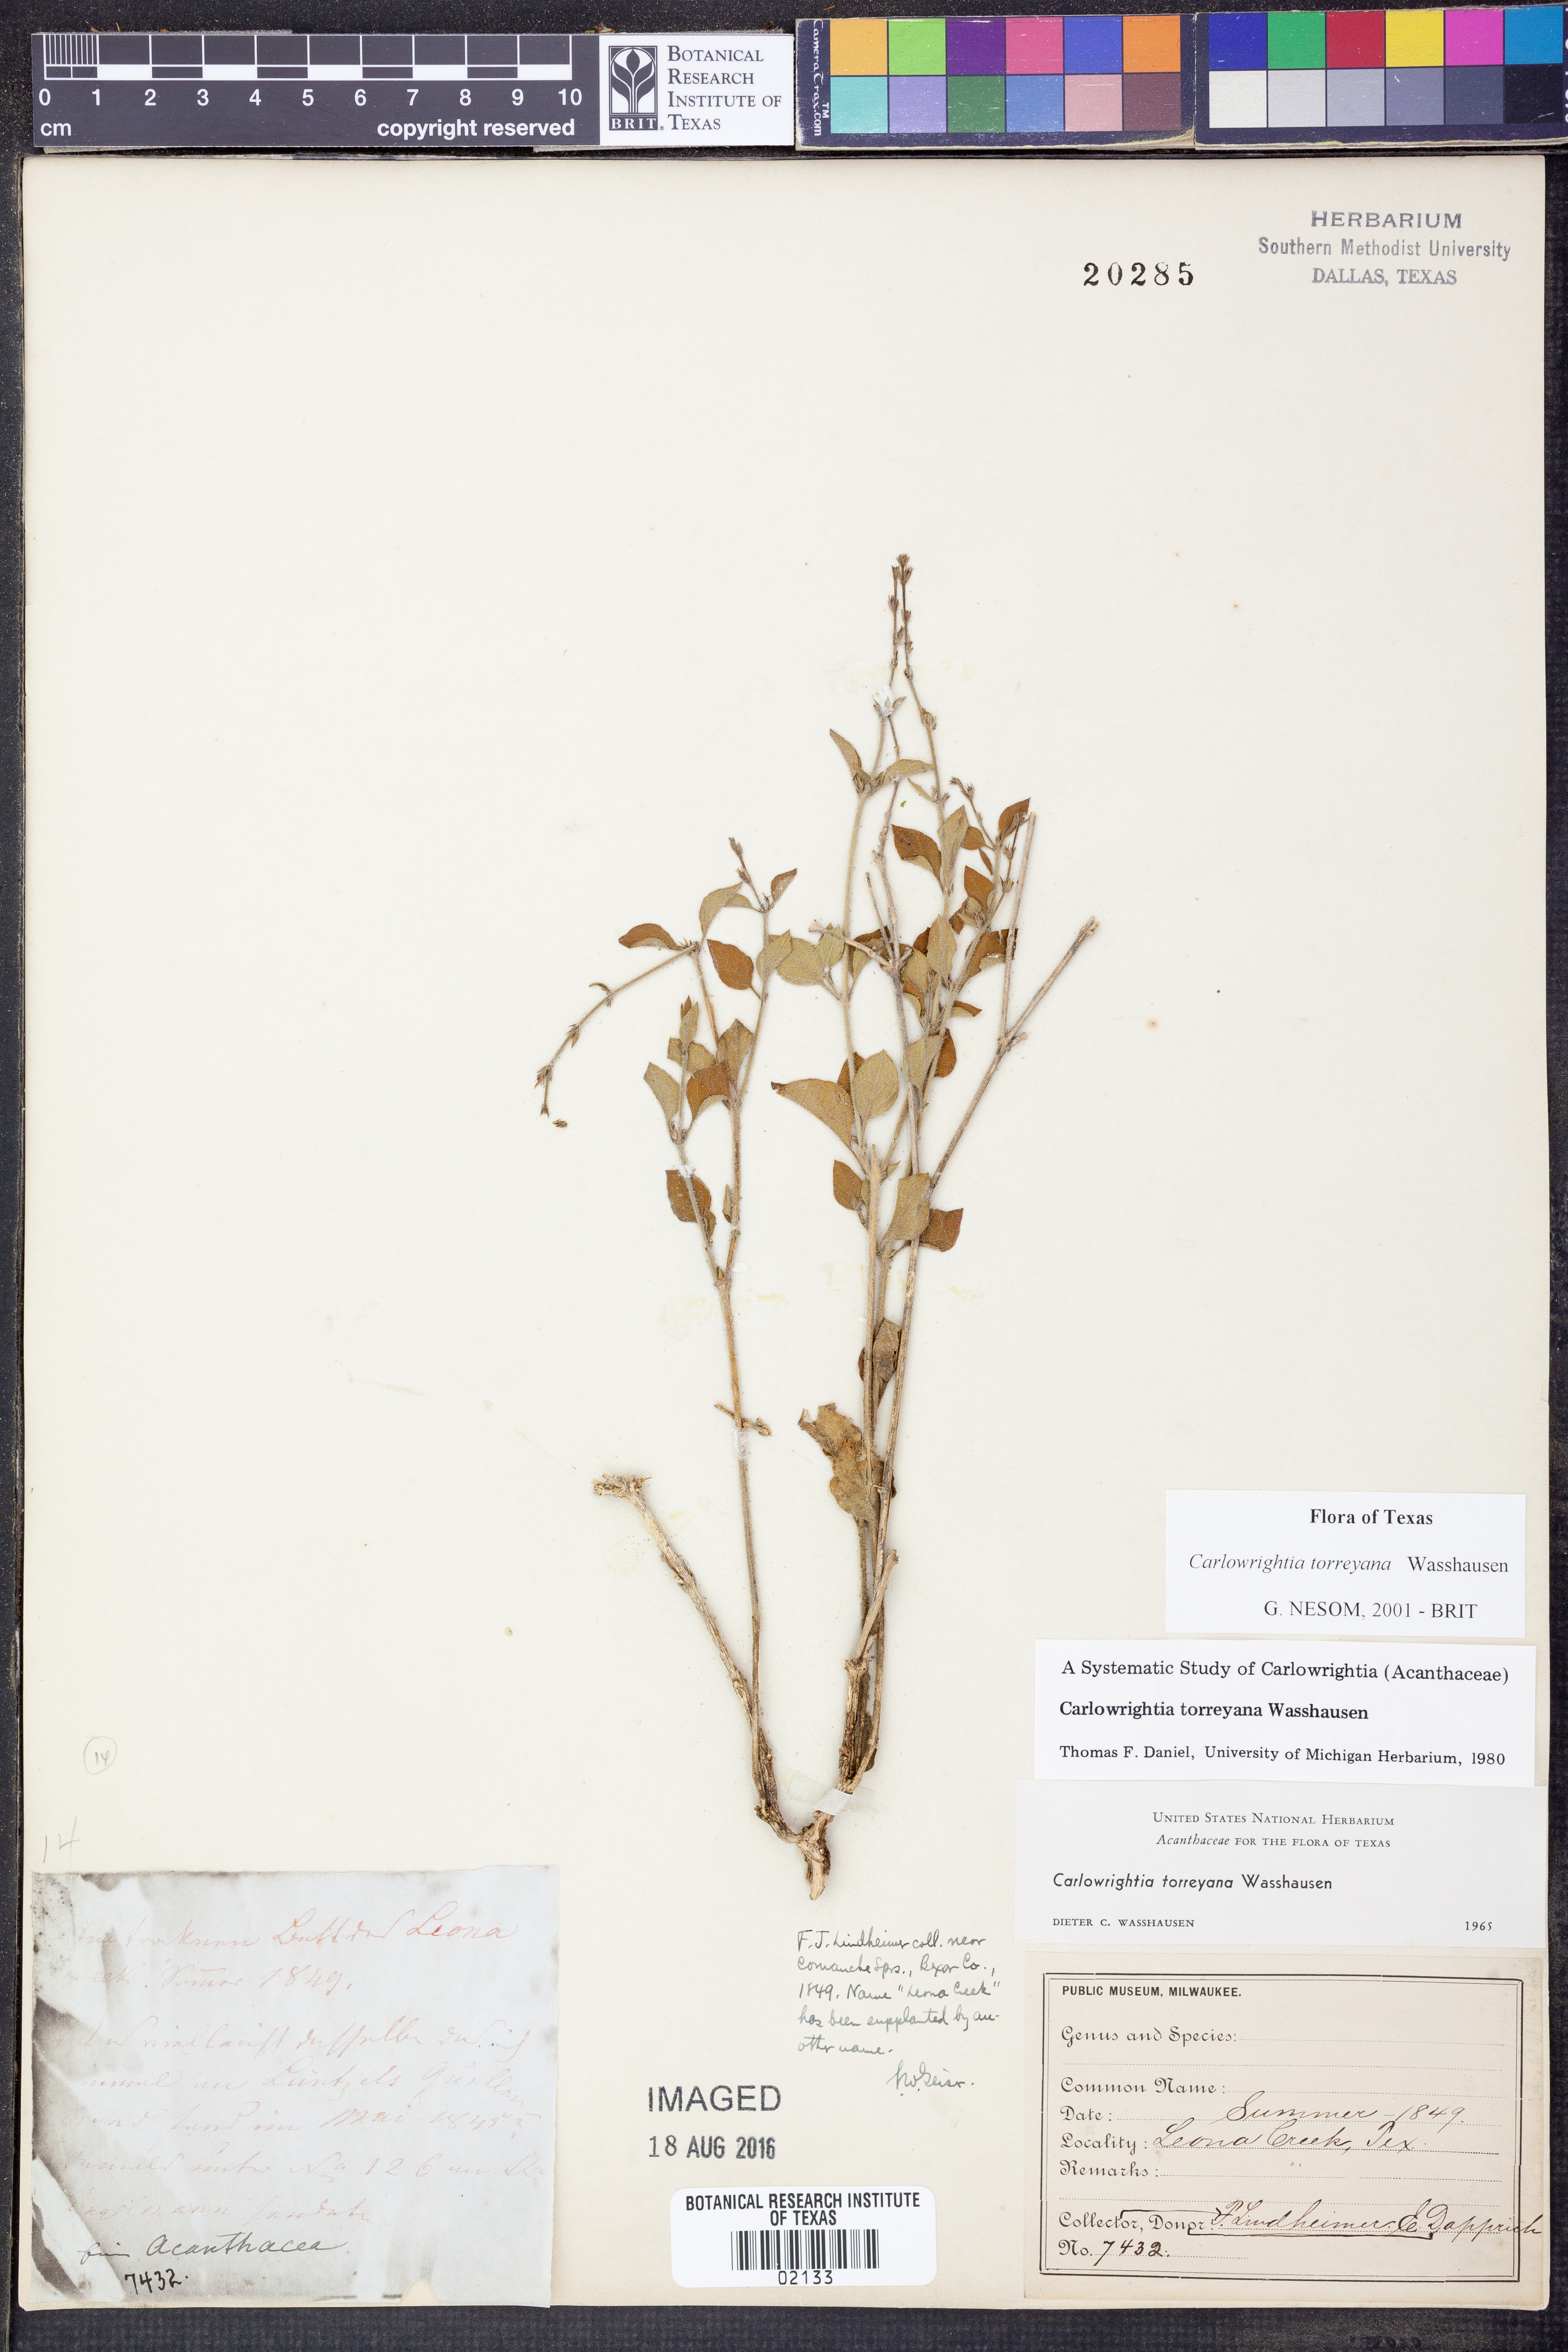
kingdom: Plantae
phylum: Tracheophyta
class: Magnoliopsida
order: Lamiales
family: Acanthaceae
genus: Carlowrightia
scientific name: Carlowrightia torreyana
